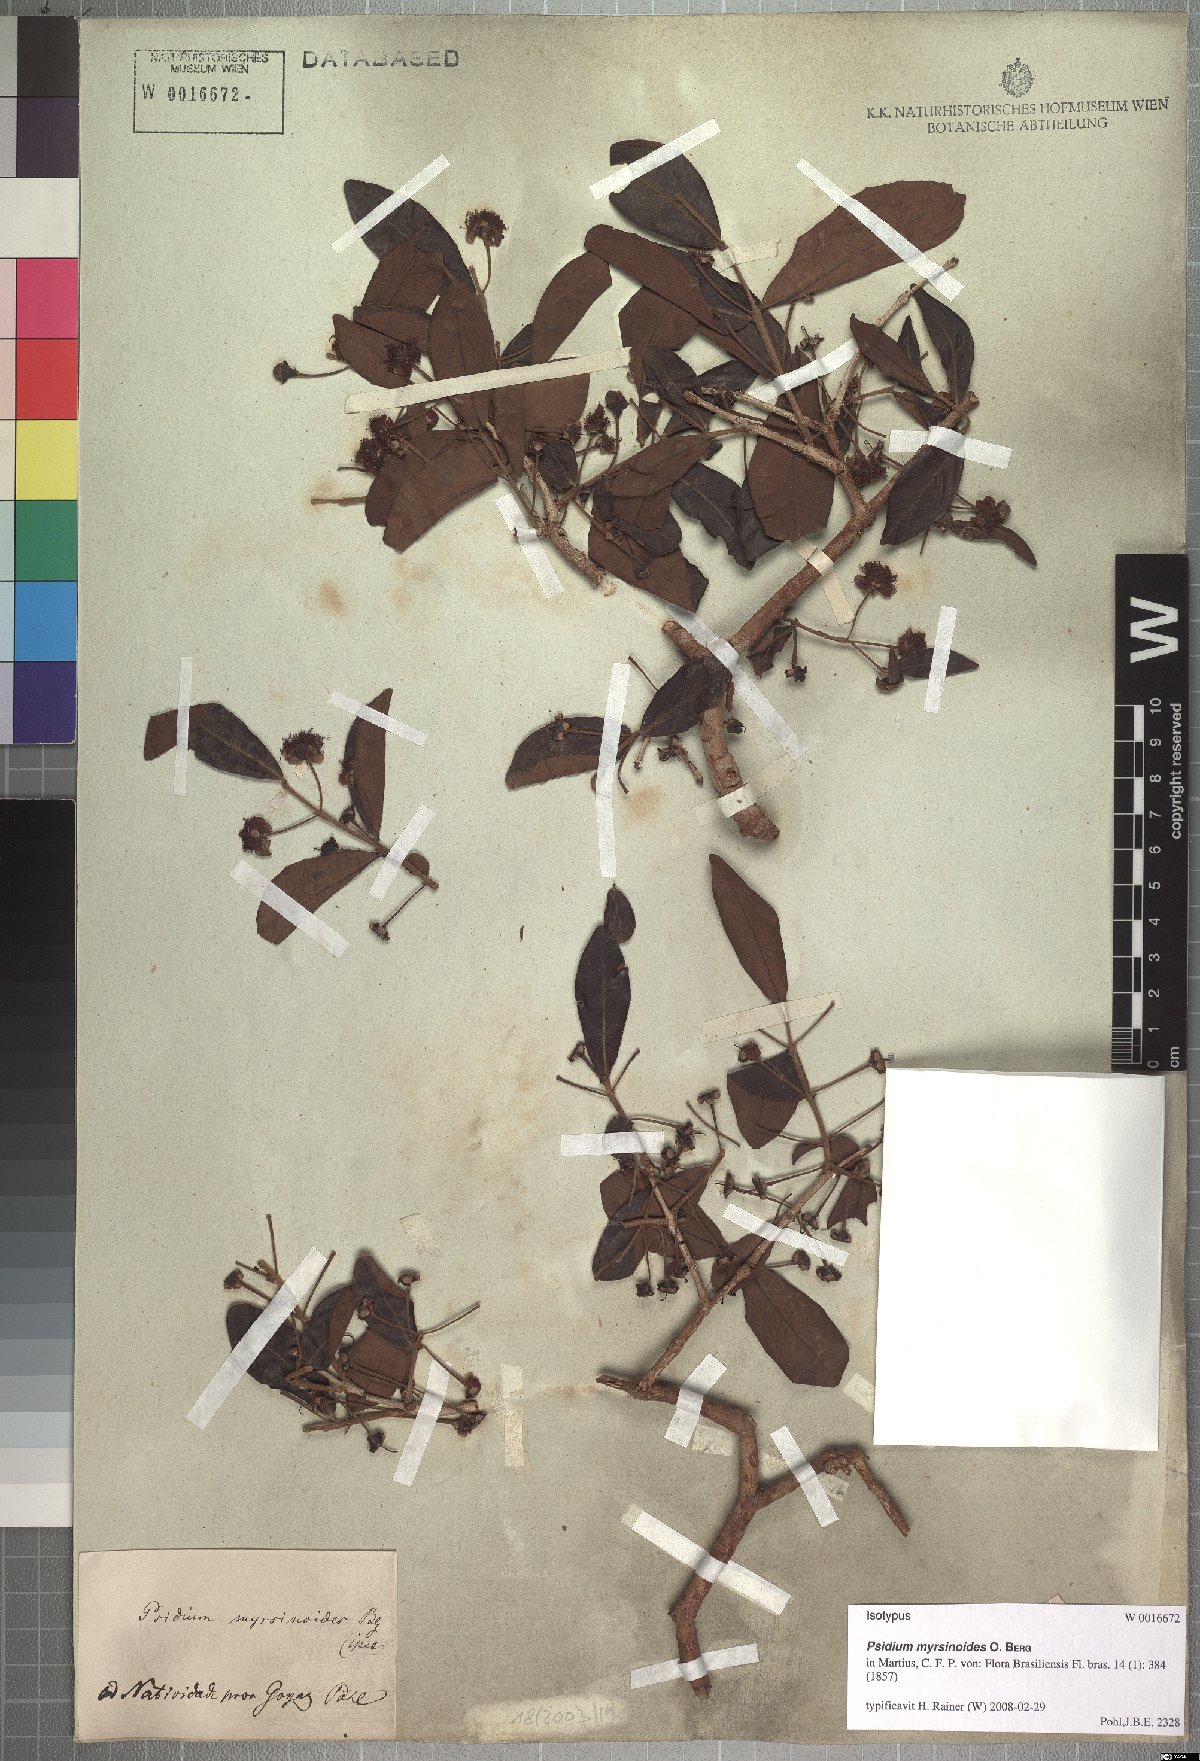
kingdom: Plantae
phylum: Tracheophyta
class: Magnoliopsida
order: Myrtales
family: Myrtaceae
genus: Psidium
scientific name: Psidium myrsinites
